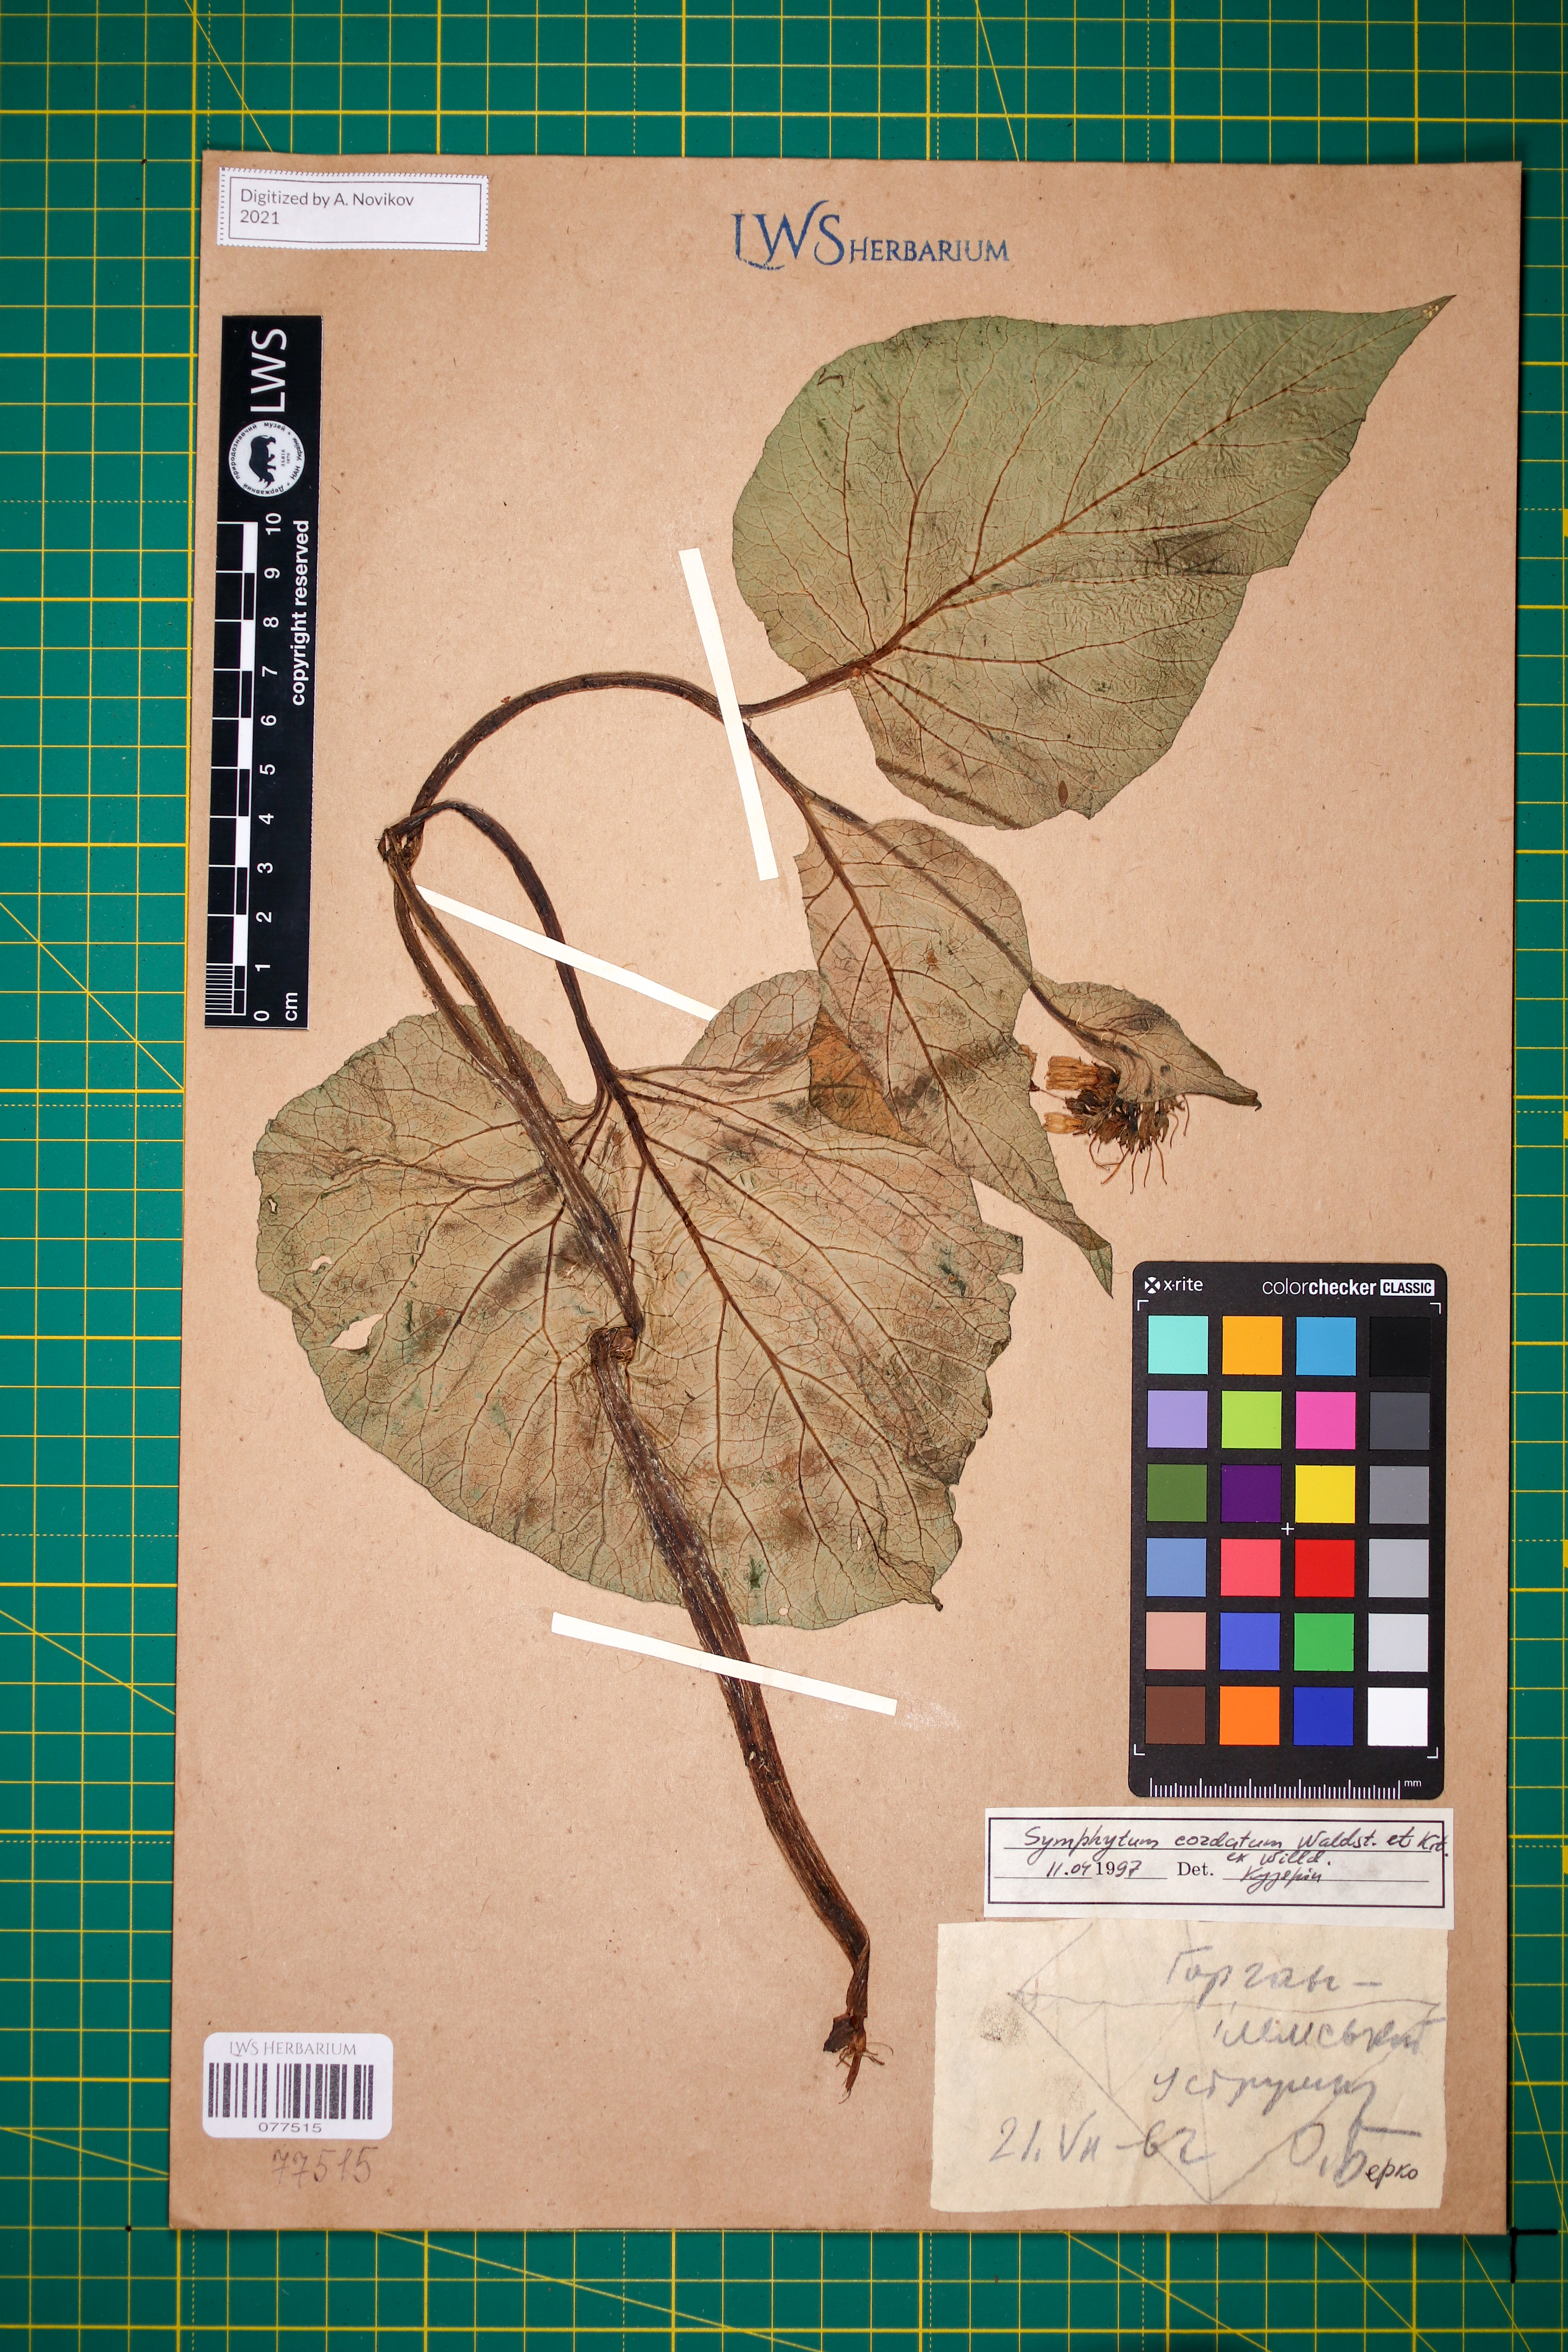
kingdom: Plantae
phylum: Tracheophyta
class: Magnoliopsida
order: Boraginales
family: Boraginaceae
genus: Symphytum
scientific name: Symphytum cordatum
